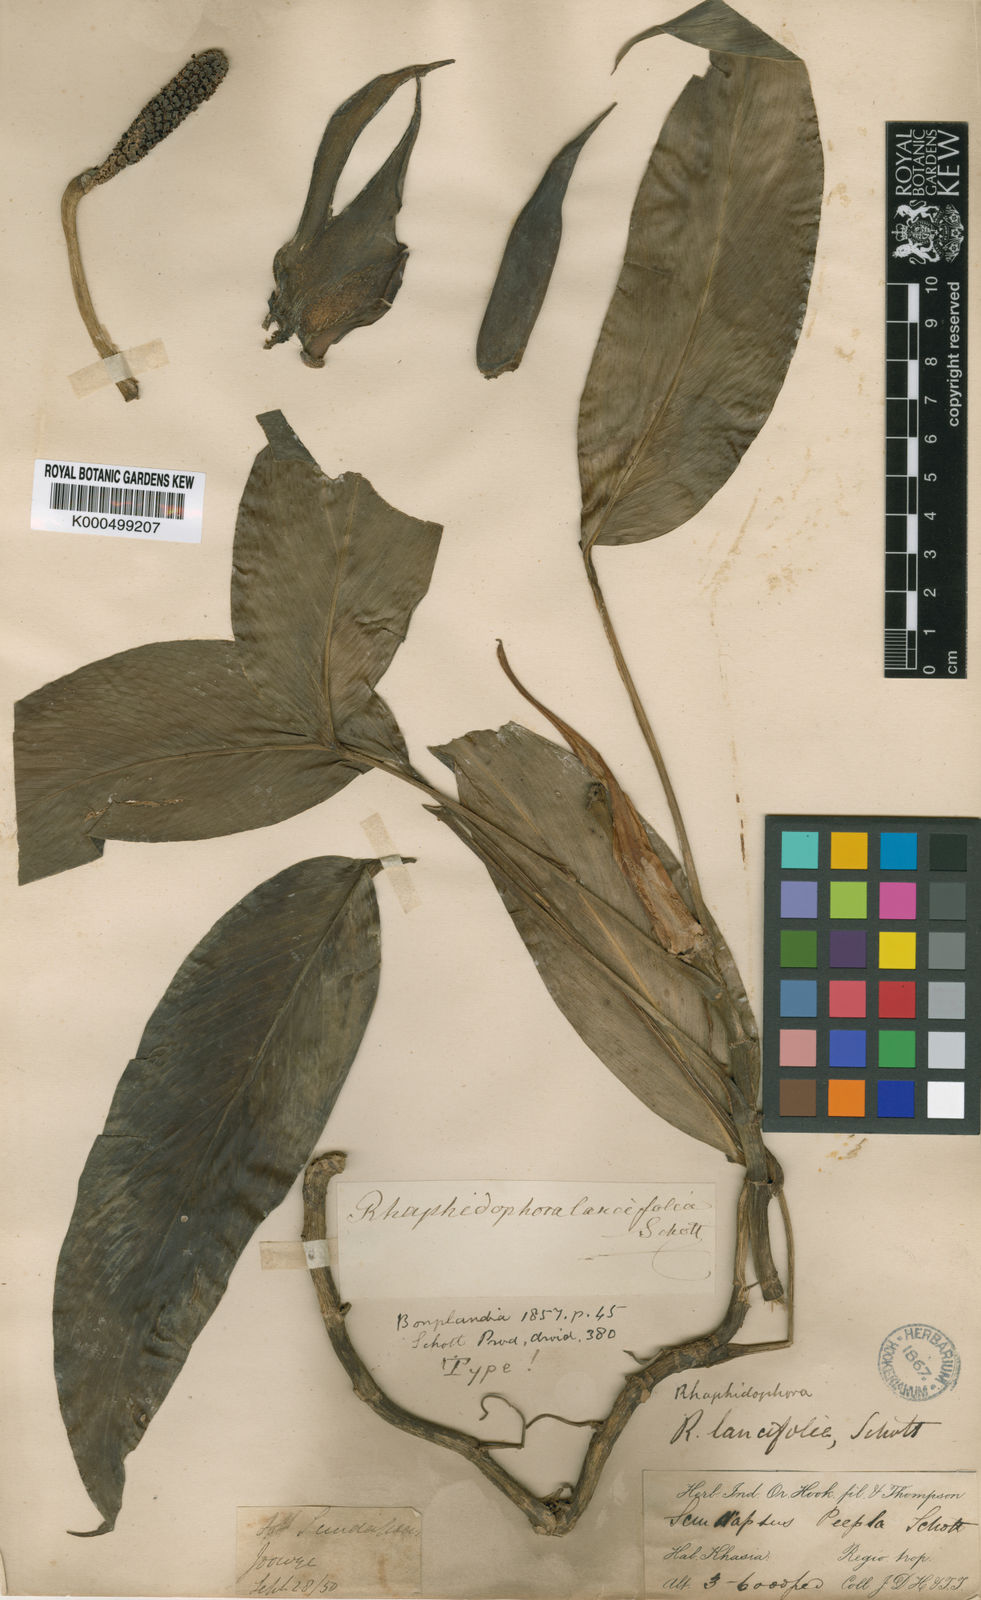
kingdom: Plantae
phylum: Tracheophyta
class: Liliopsida
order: Alismatales
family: Araceae
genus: Rhaphidophora
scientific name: Rhaphidophora peepla
